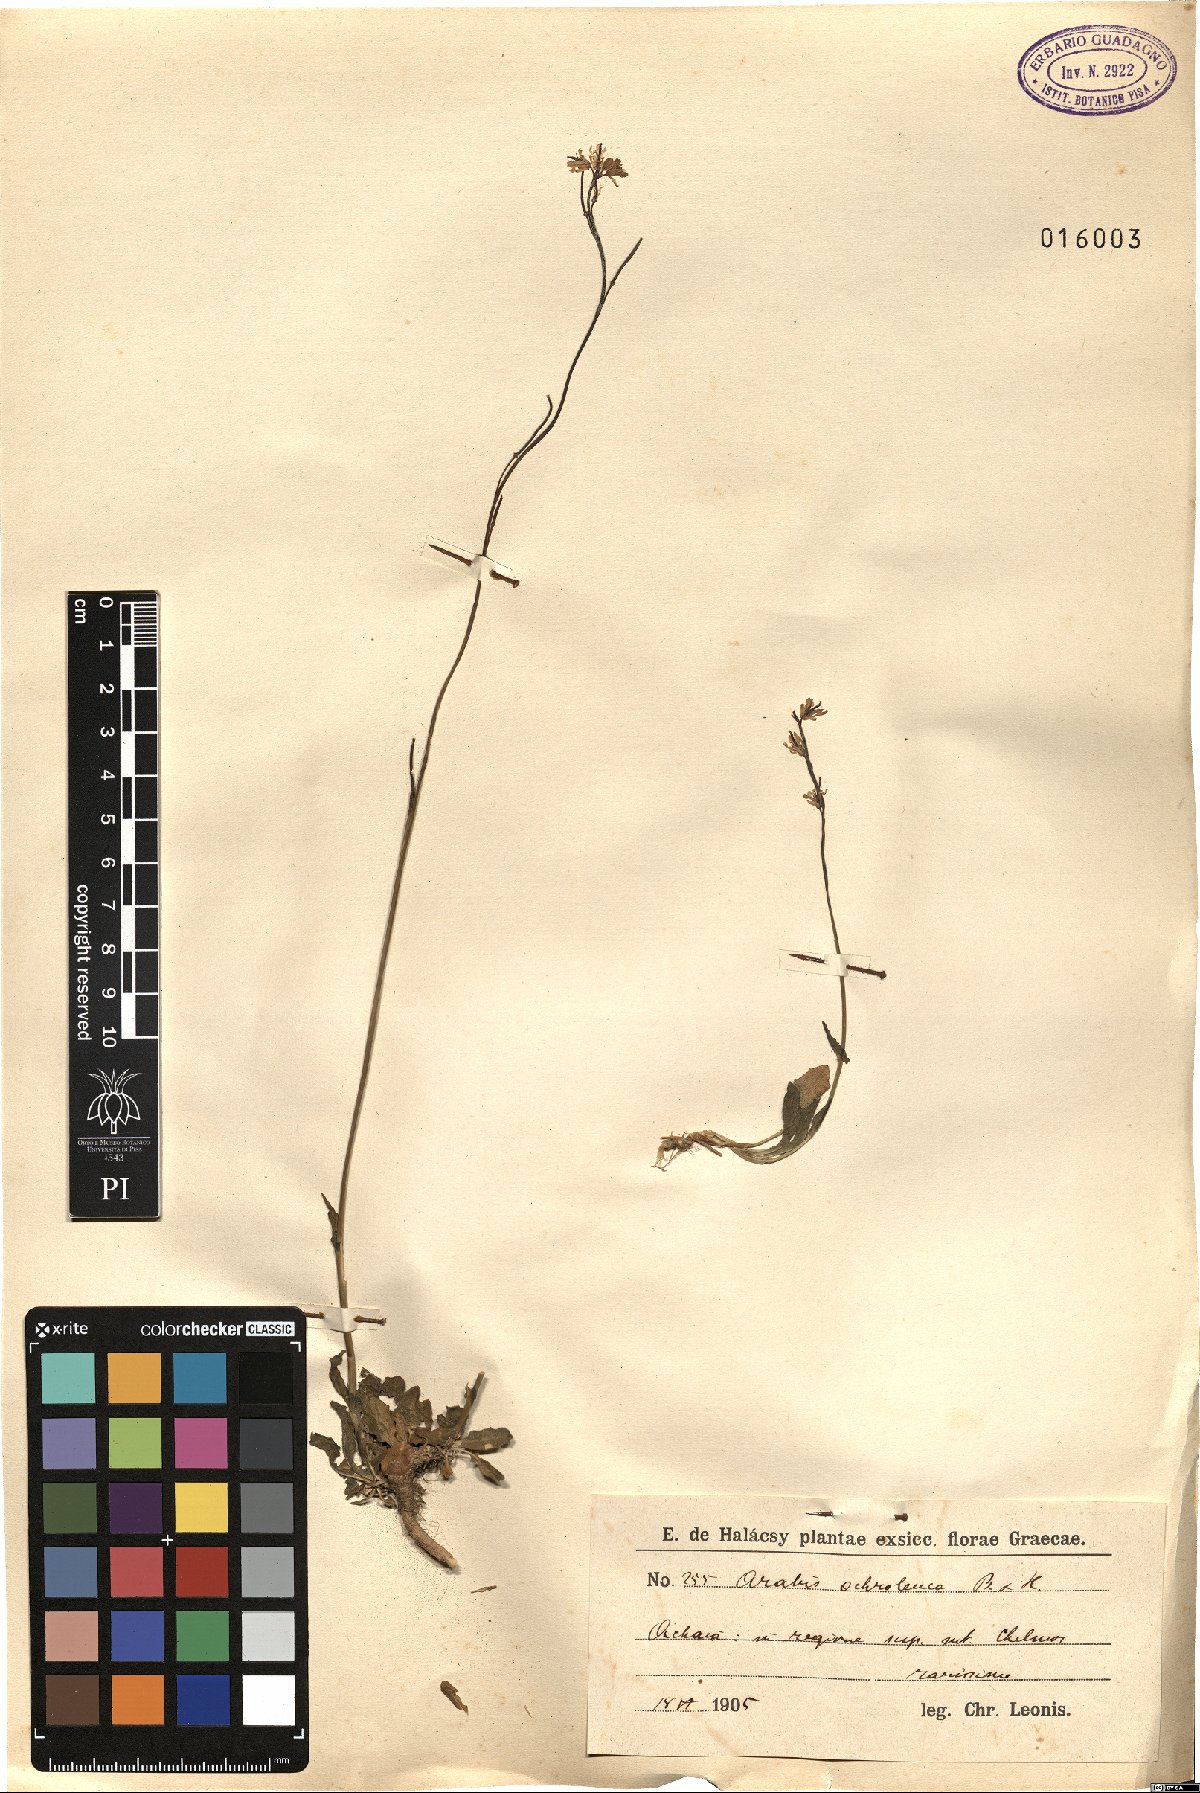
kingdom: Plantae
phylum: Tracheophyta
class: Magnoliopsida
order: Brassicales
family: Brassicaceae
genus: Arabis
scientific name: Arabis subflava
